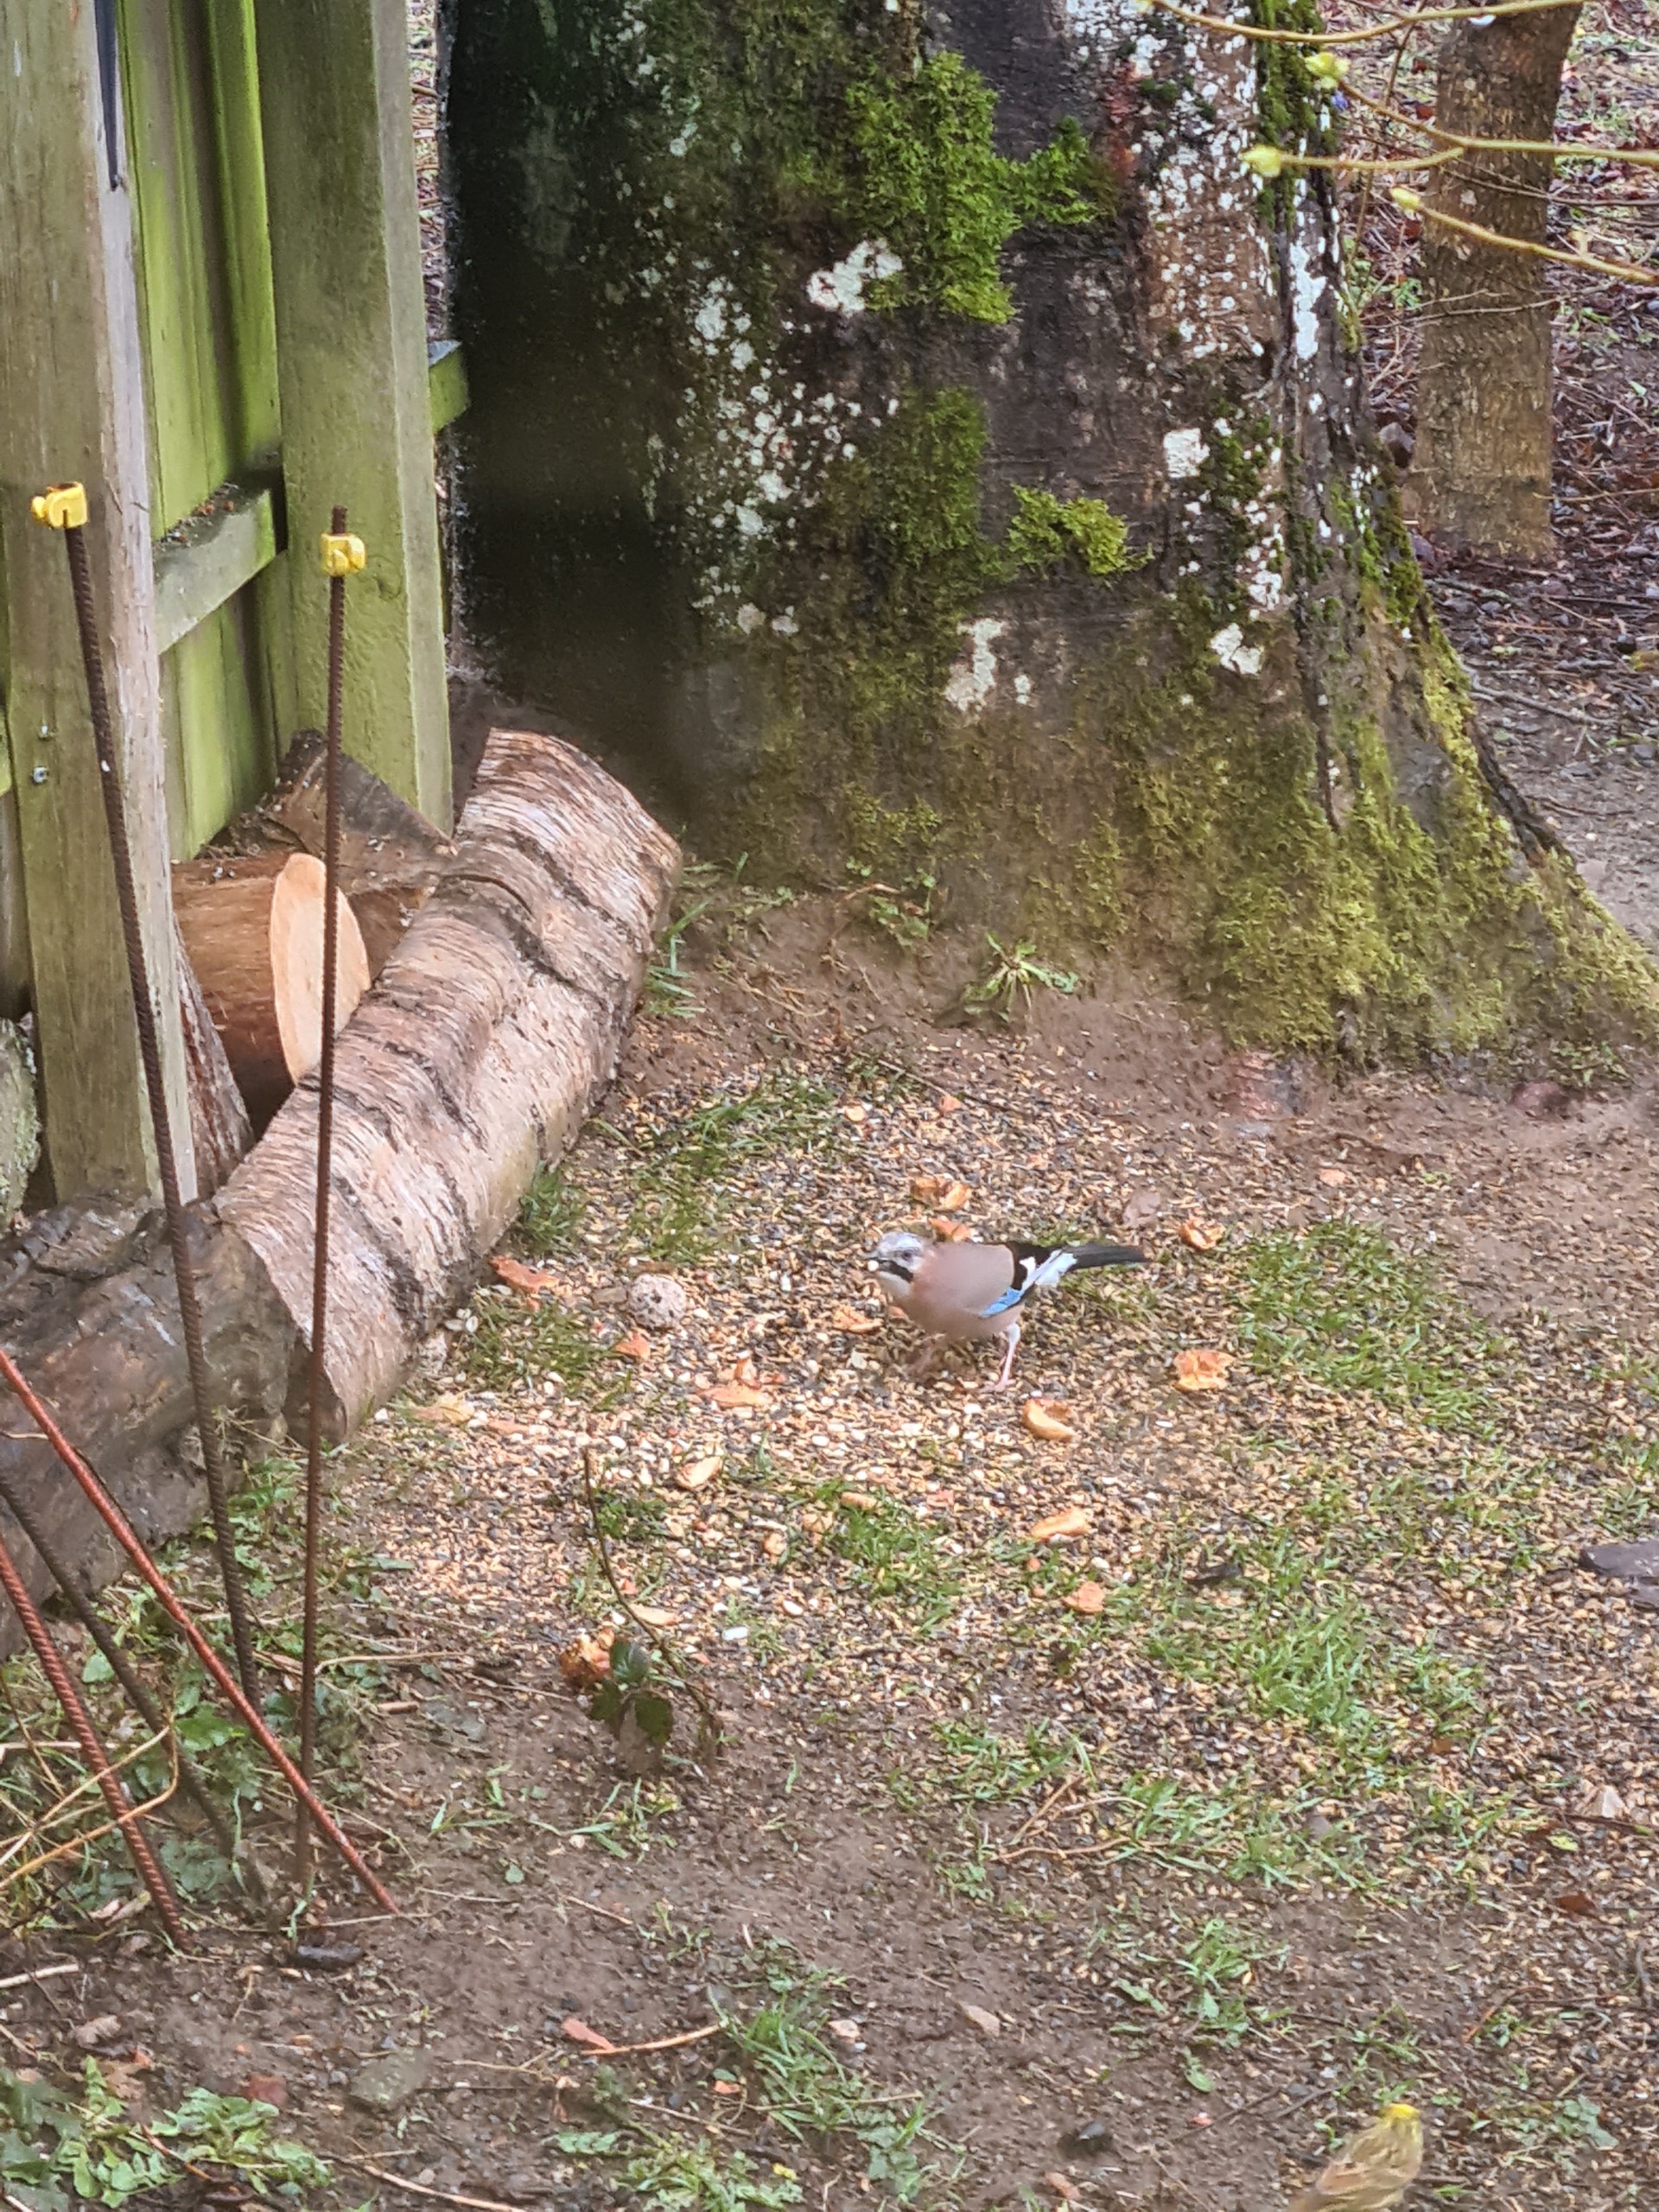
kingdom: Animalia
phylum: Chordata
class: Aves
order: Passeriformes
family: Corvidae
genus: Garrulus
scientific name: Garrulus glandarius
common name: Skovskade
